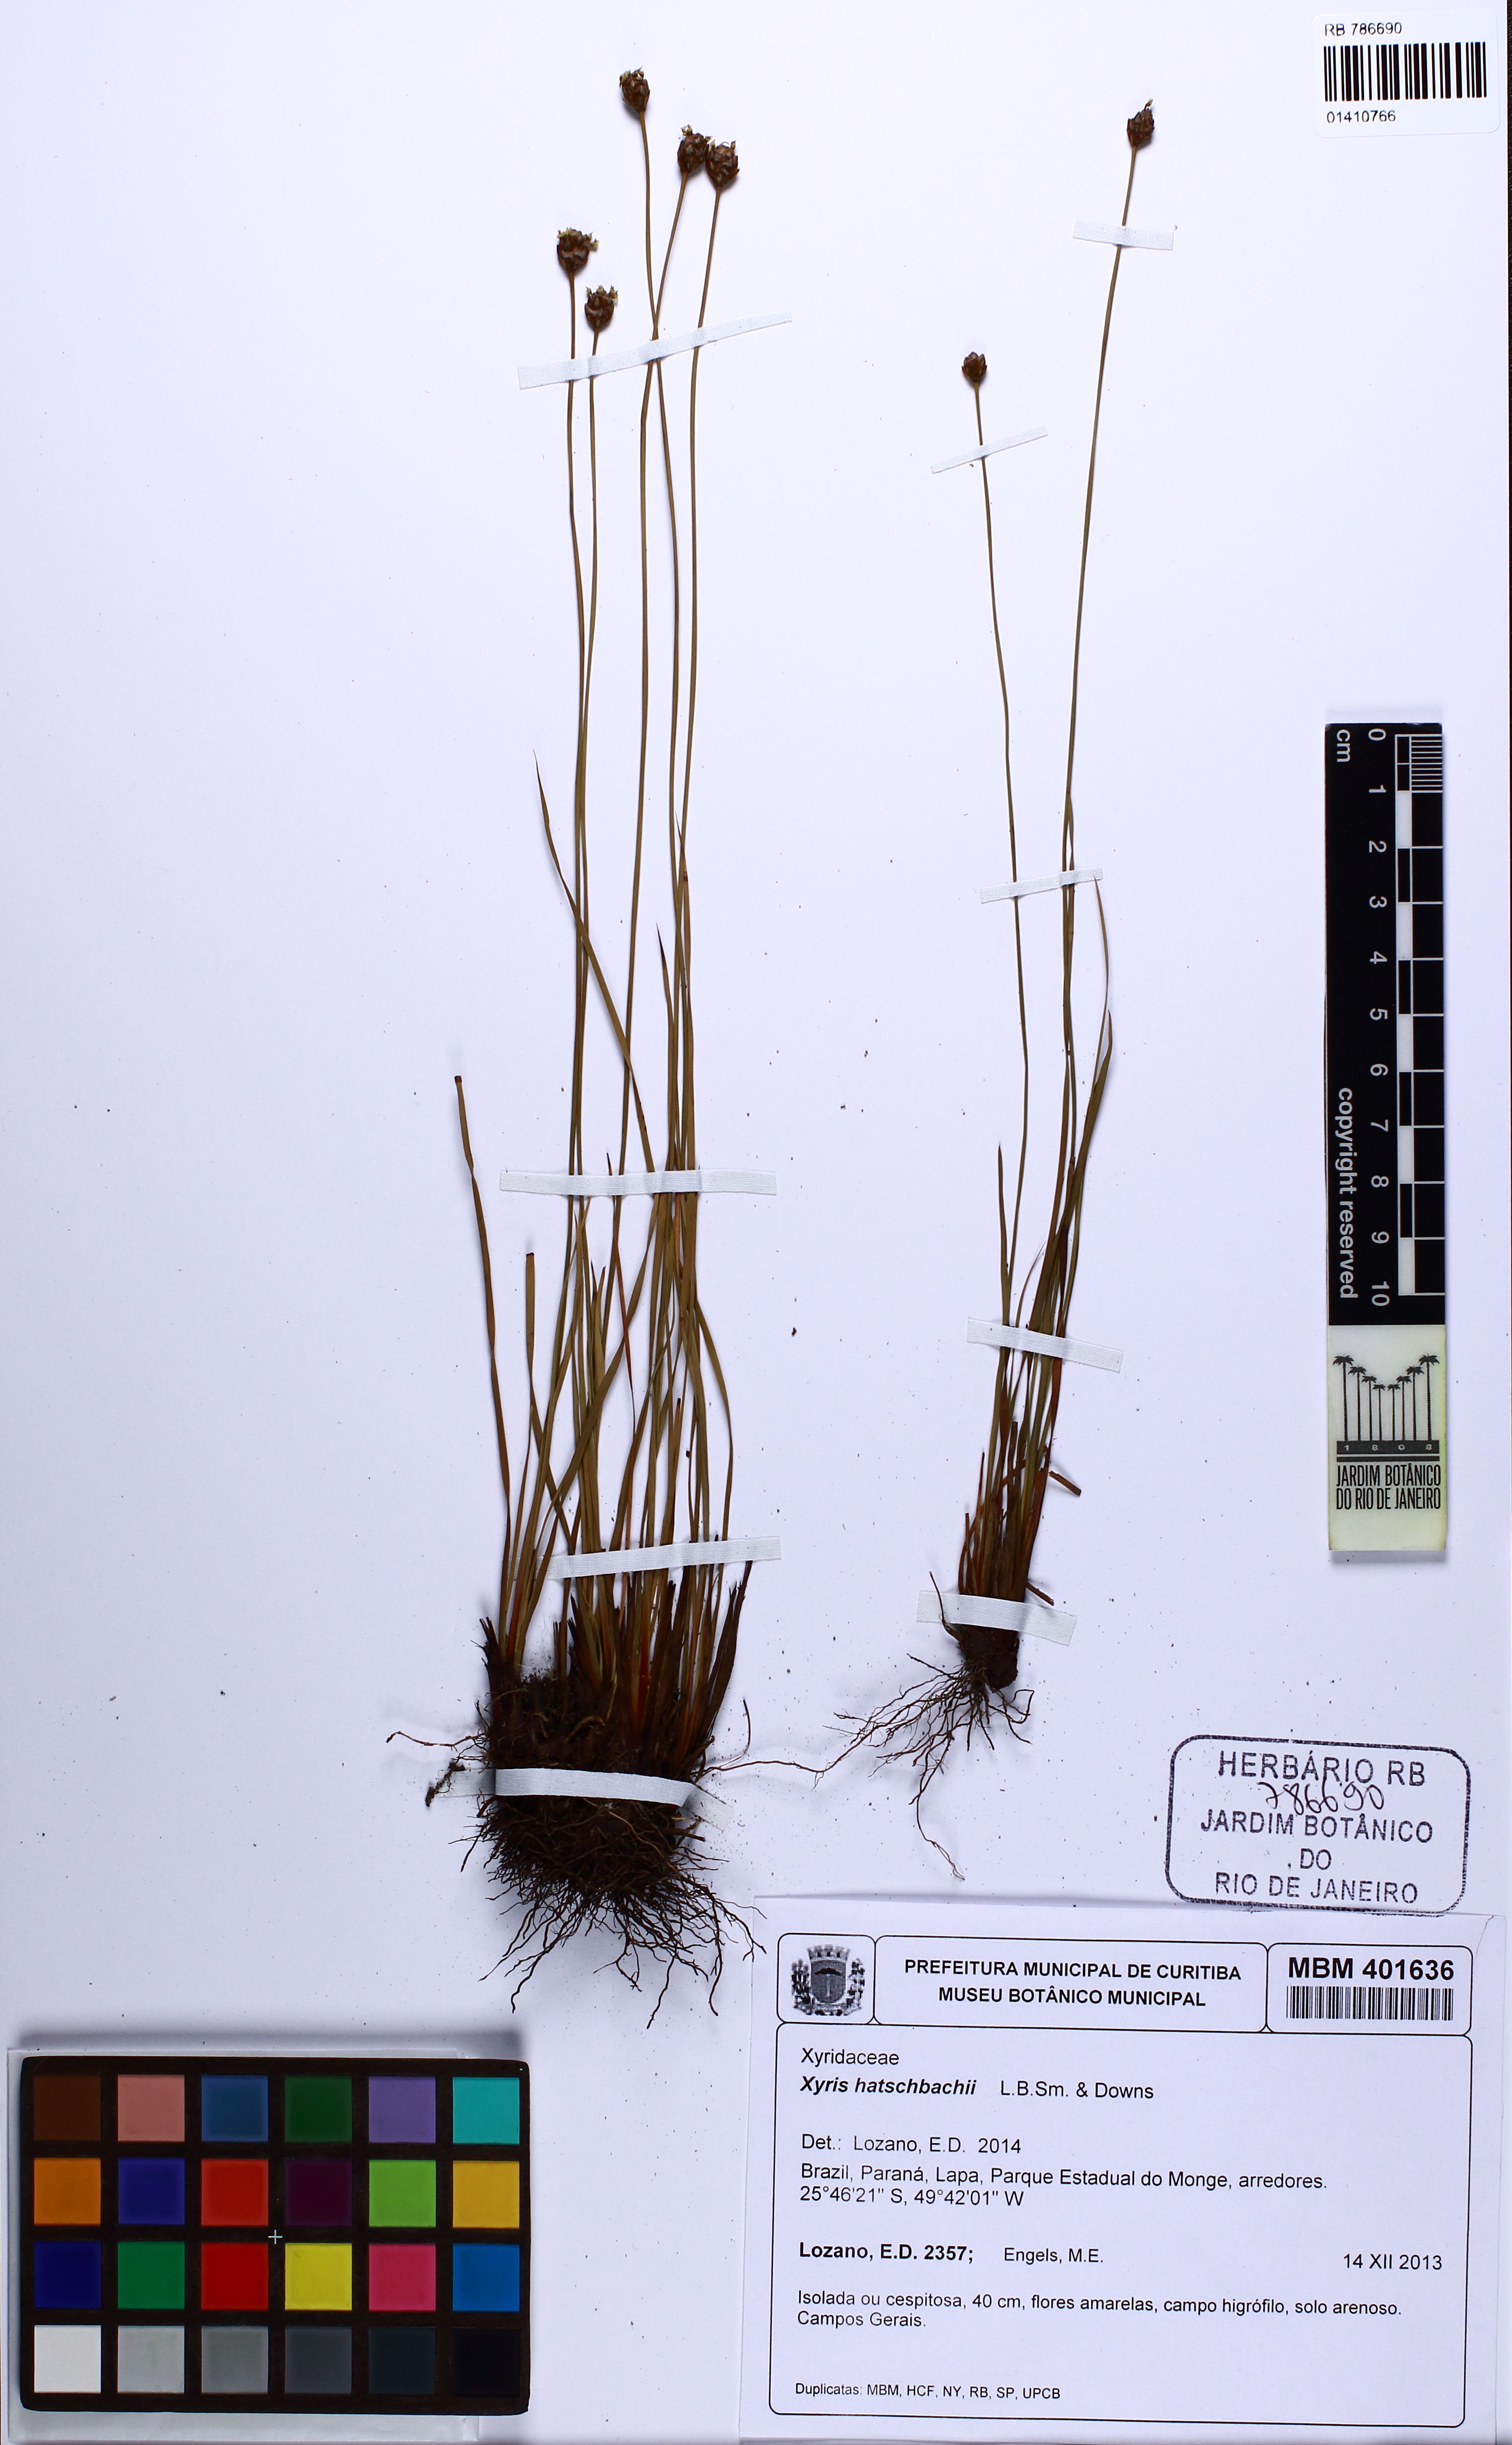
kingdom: Plantae
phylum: Tracheophyta
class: Liliopsida
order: Poales
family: Xyridaceae
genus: Xyris
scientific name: Xyris hatschbachii
